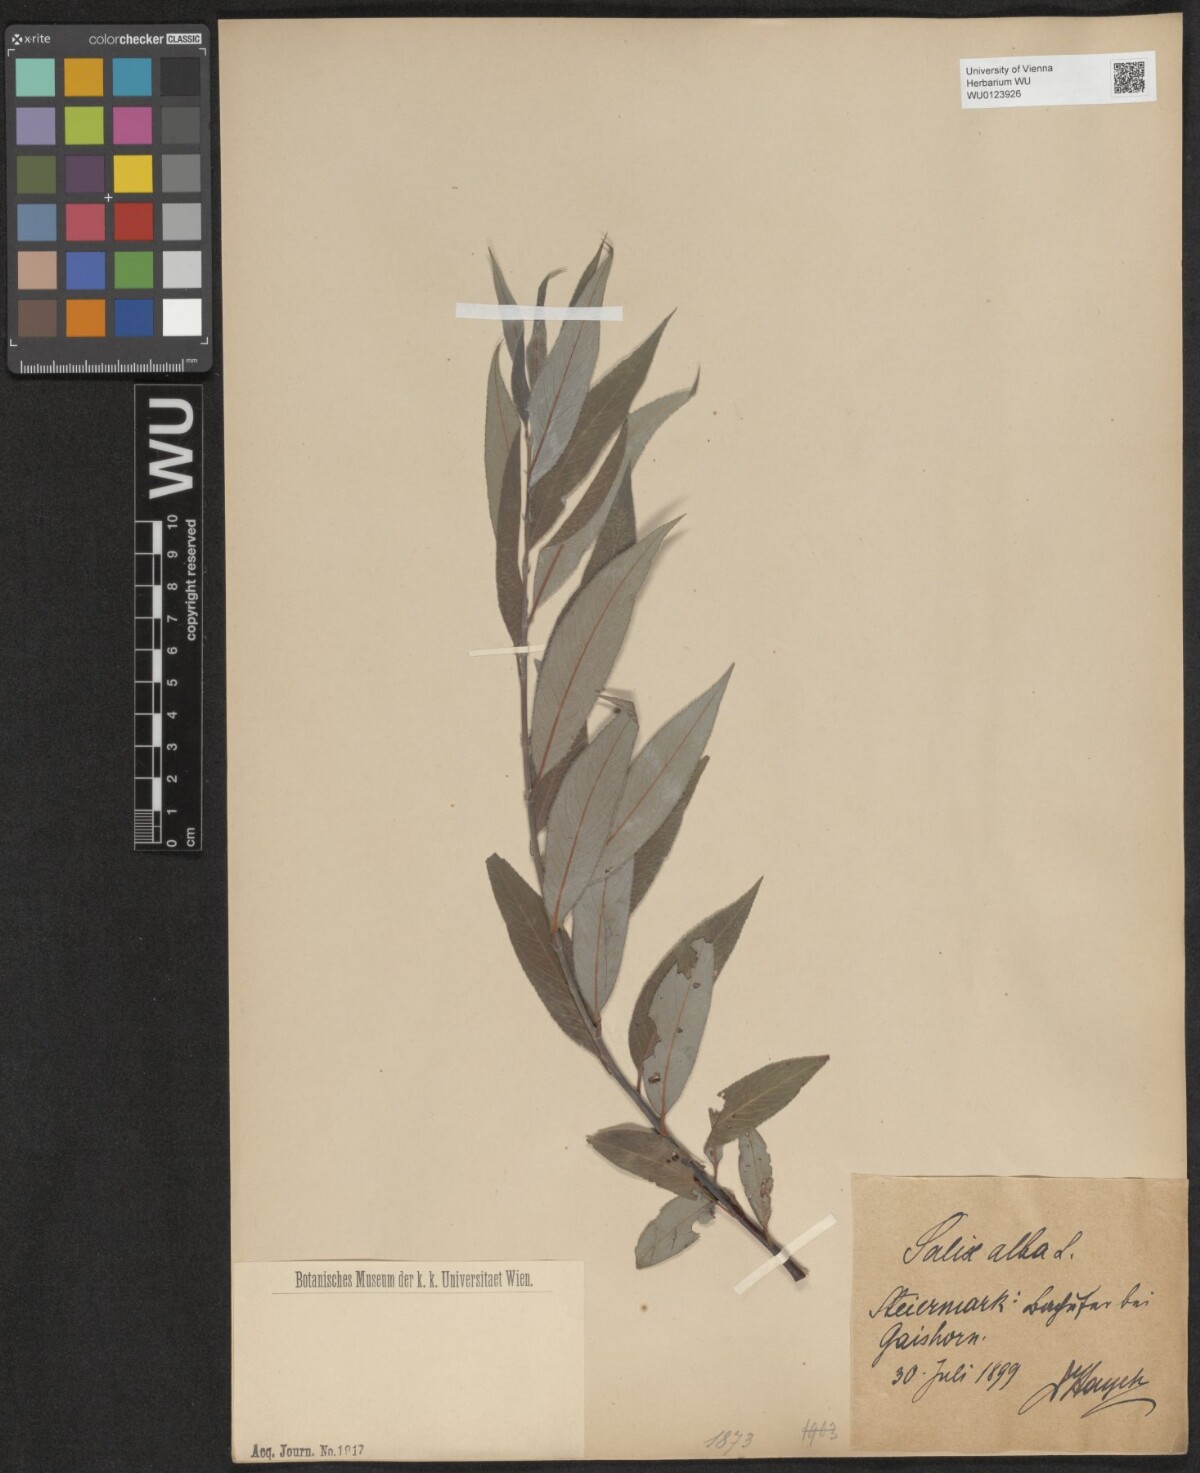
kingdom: Plantae
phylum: Tracheophyta
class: Magnoliopsida
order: Malpighiales
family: Salicaceae
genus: Salix
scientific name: Salix alba
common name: White willow
